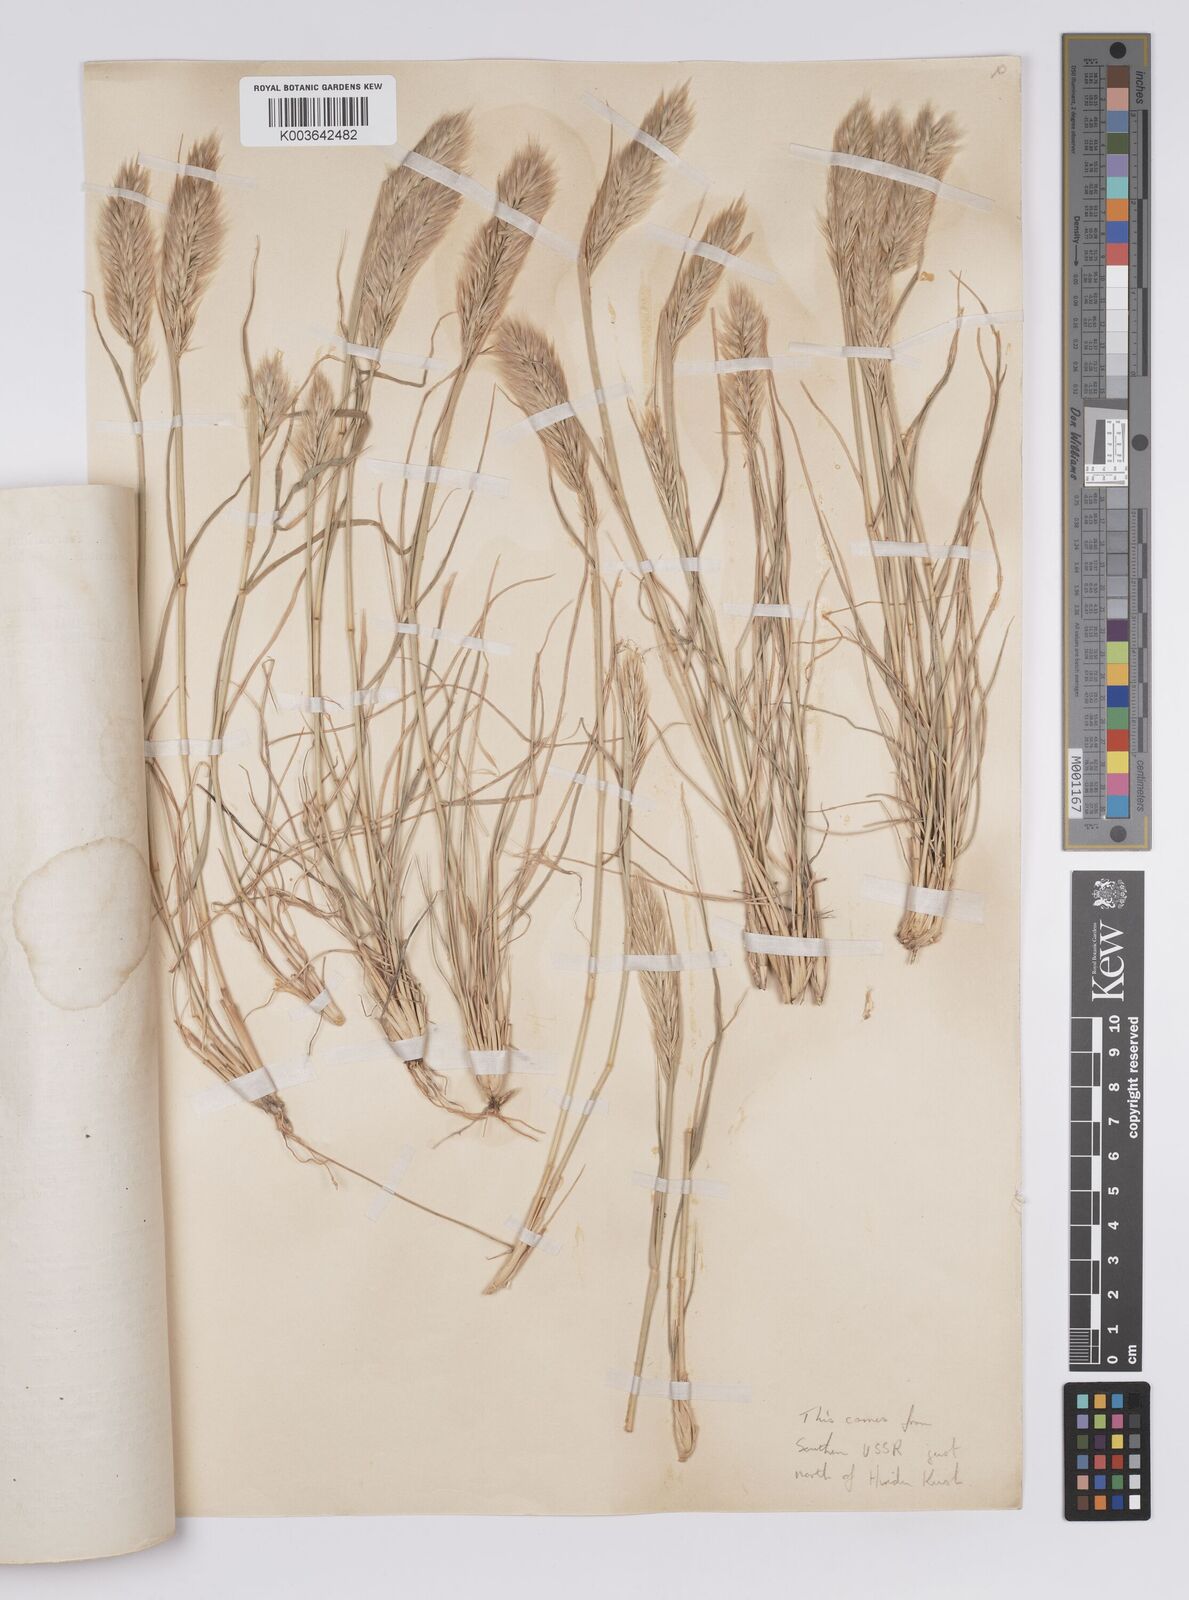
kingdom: Plantae
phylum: Tracheophyta
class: Liliopsida
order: Poales
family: Poaceae
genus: Enneapogon
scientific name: Enneapogon persicus
